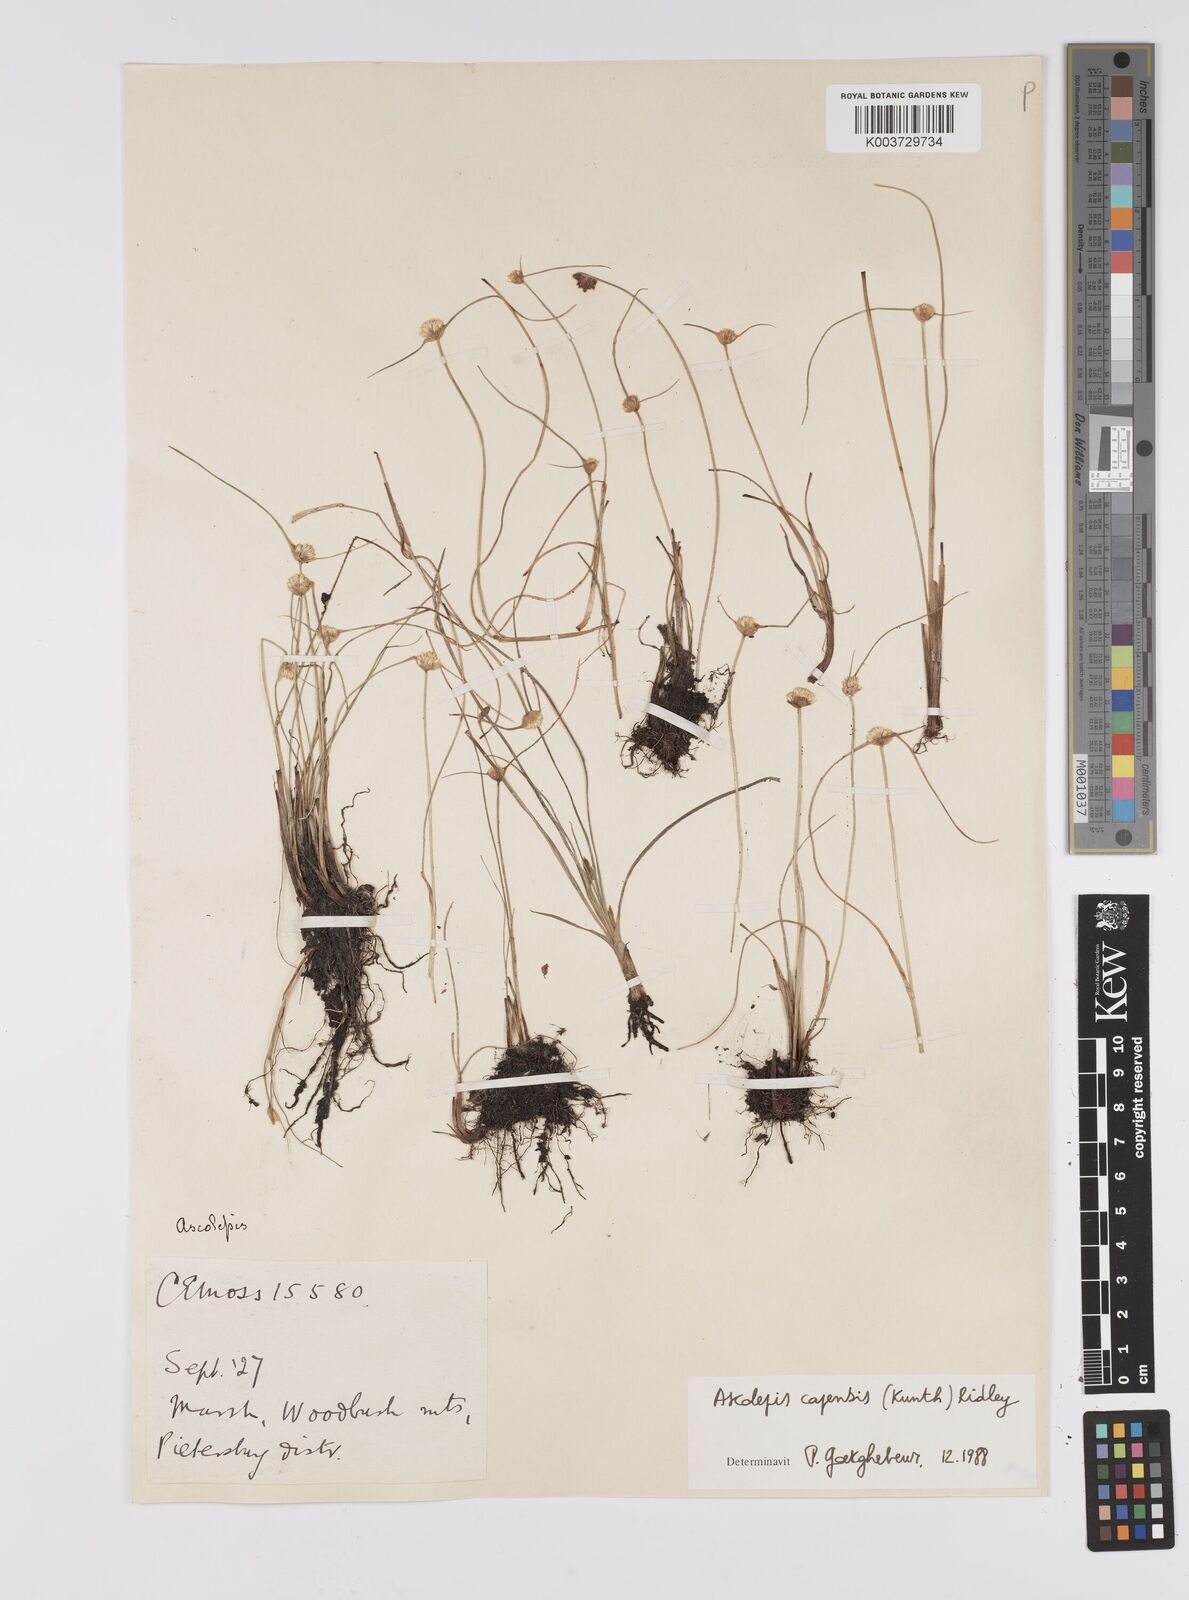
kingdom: Plantae
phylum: Tracheophyta
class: Liliopsida
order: Poales
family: Cyperaceae
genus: Cyperus
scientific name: Cyperus capensis
